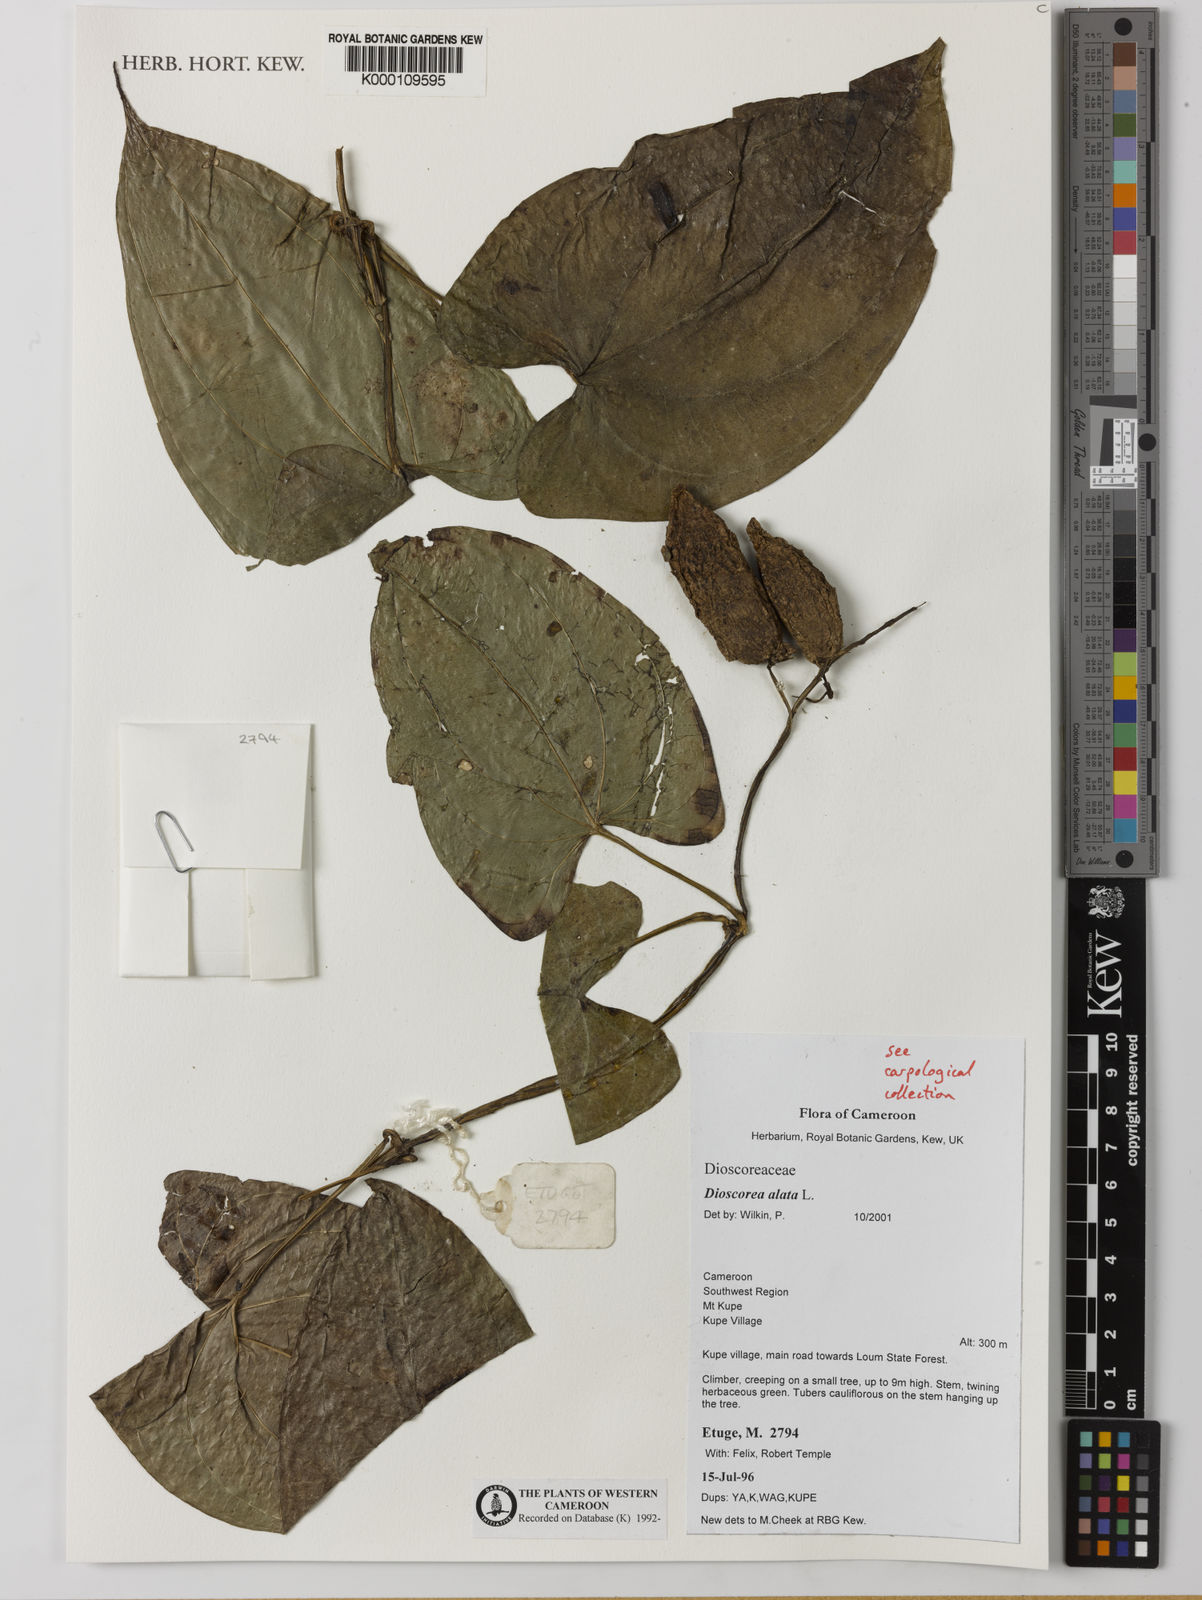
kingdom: Plantae
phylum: Tracheophyta
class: Liliopsida
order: Dioscoreales
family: Dioscoreaceae
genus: Dioscorea
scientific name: Dioscorea alata
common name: Water yam
